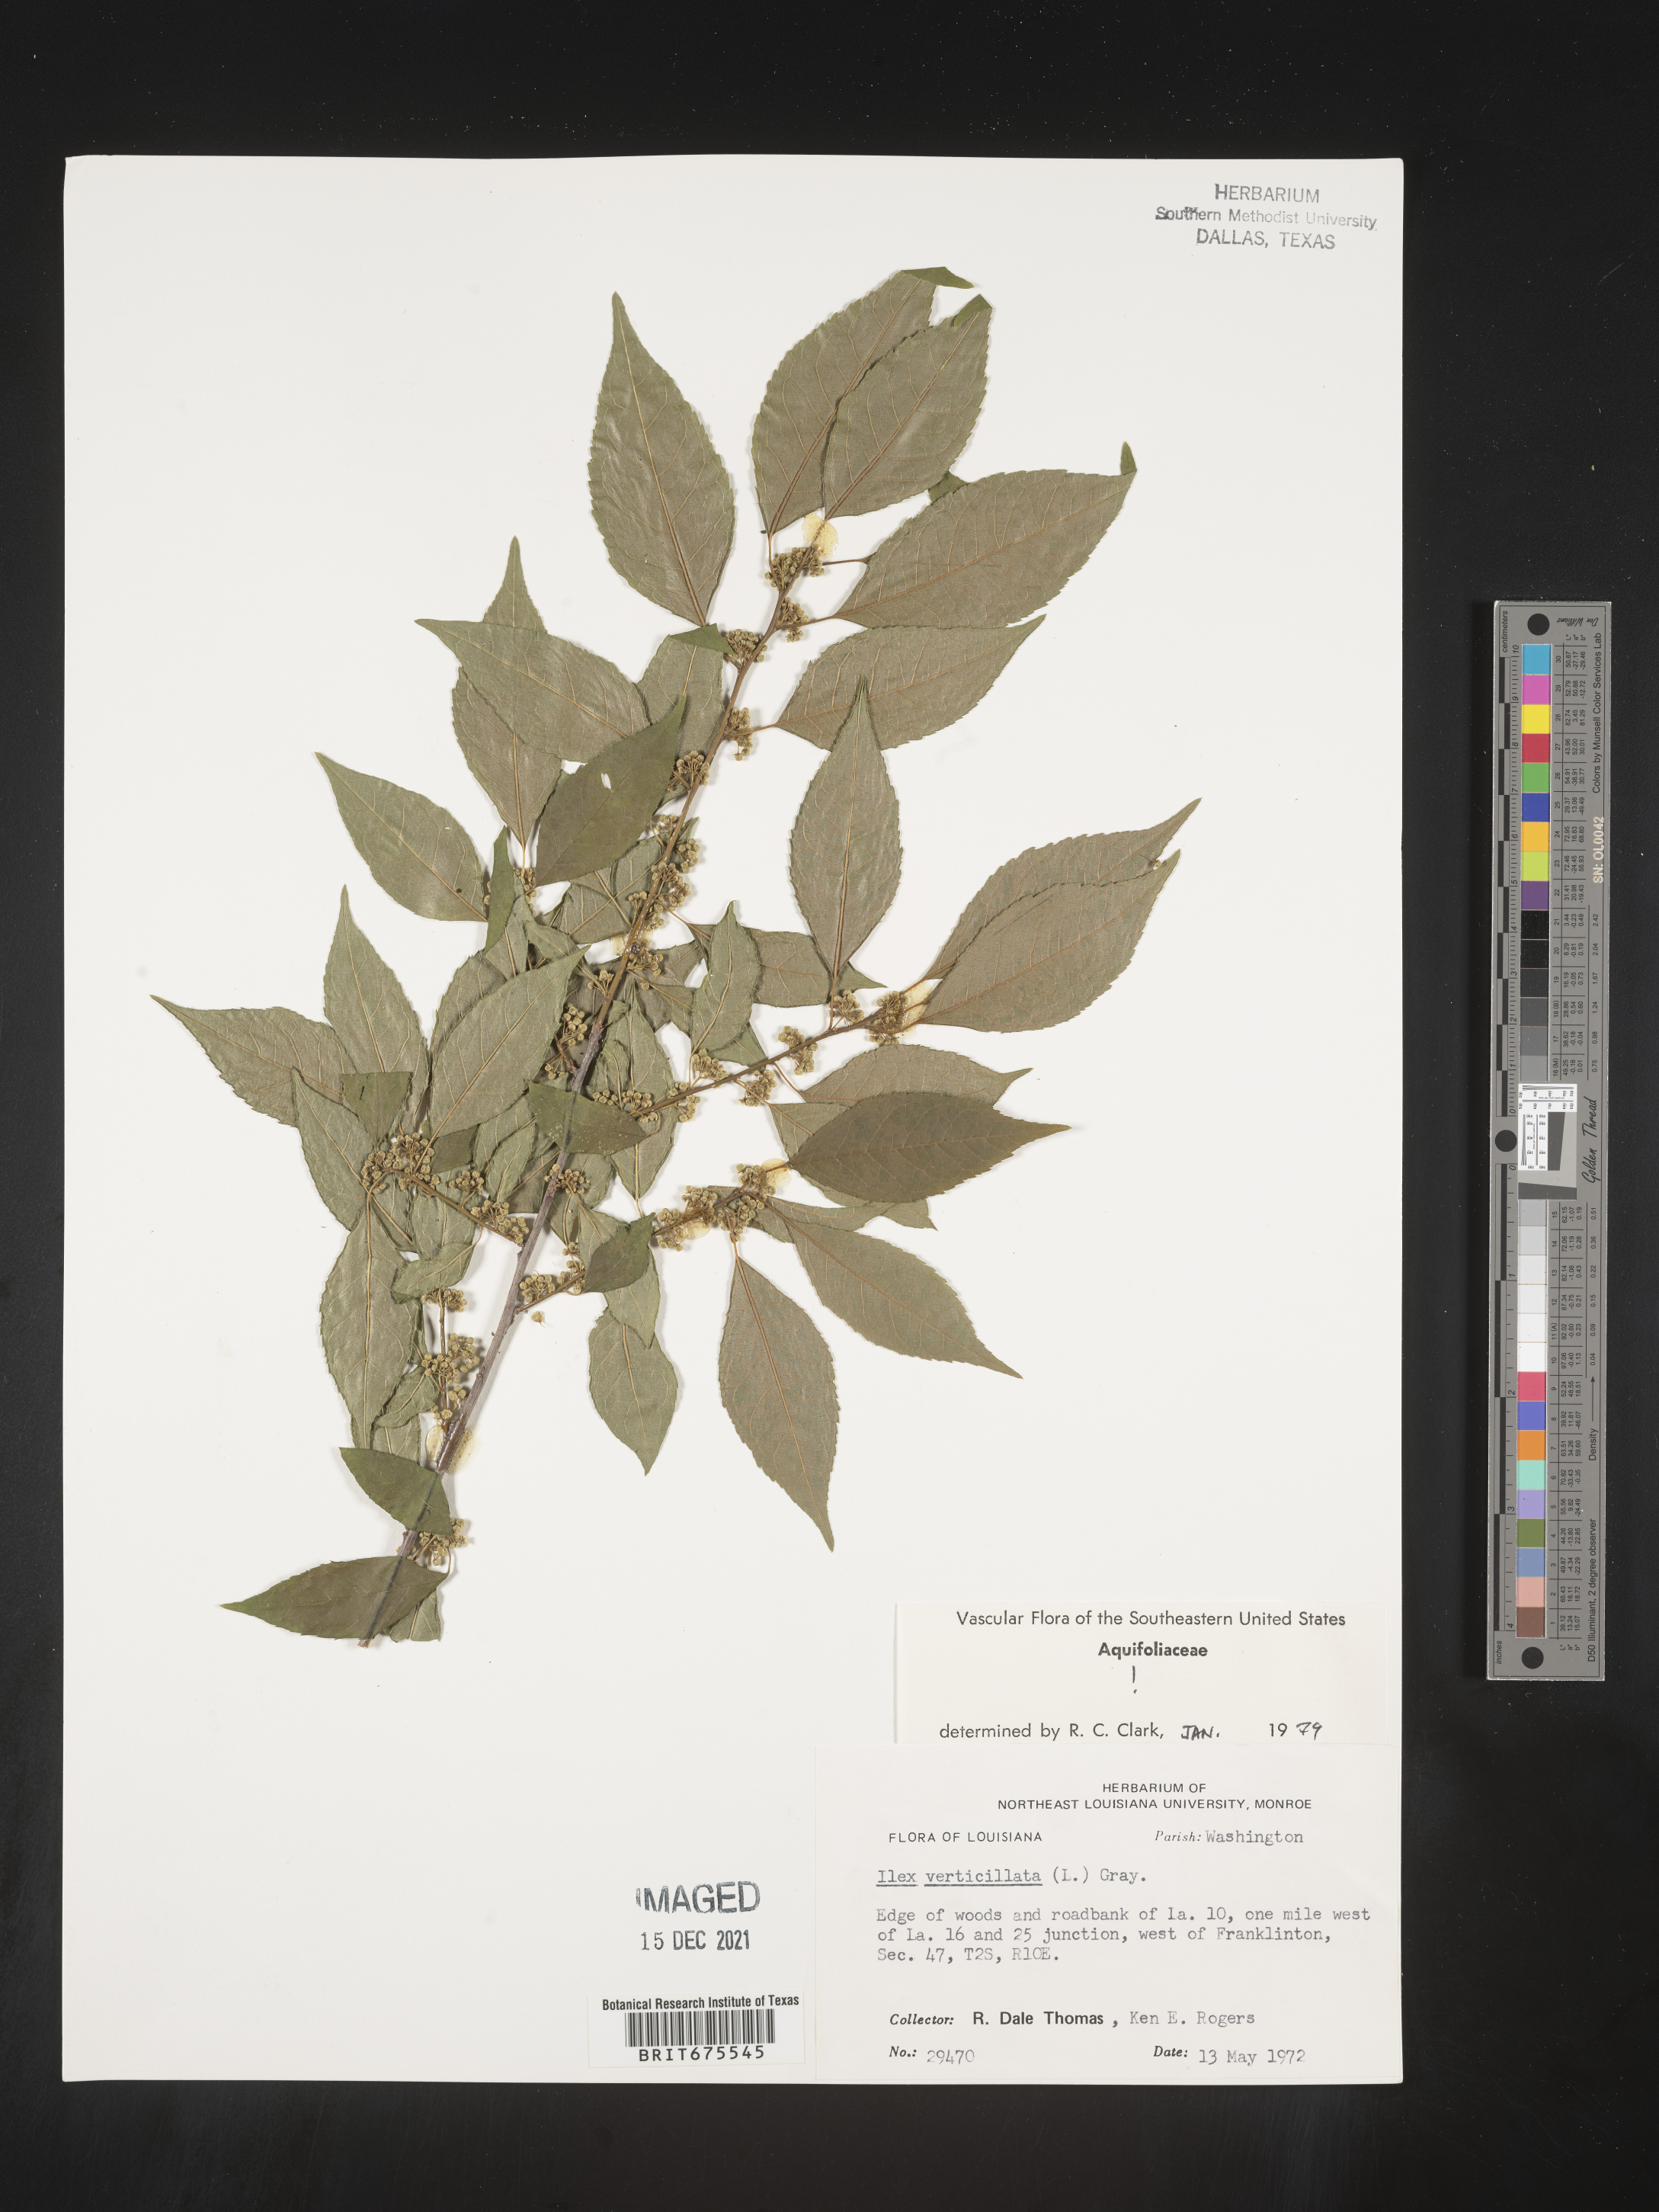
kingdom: Plantae
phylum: Tracheophyta
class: Magnoliopsida
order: Aquifoliales
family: Aquifoliaceae
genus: Ilex
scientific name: Ilex verticillata
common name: Virginia winterberry
